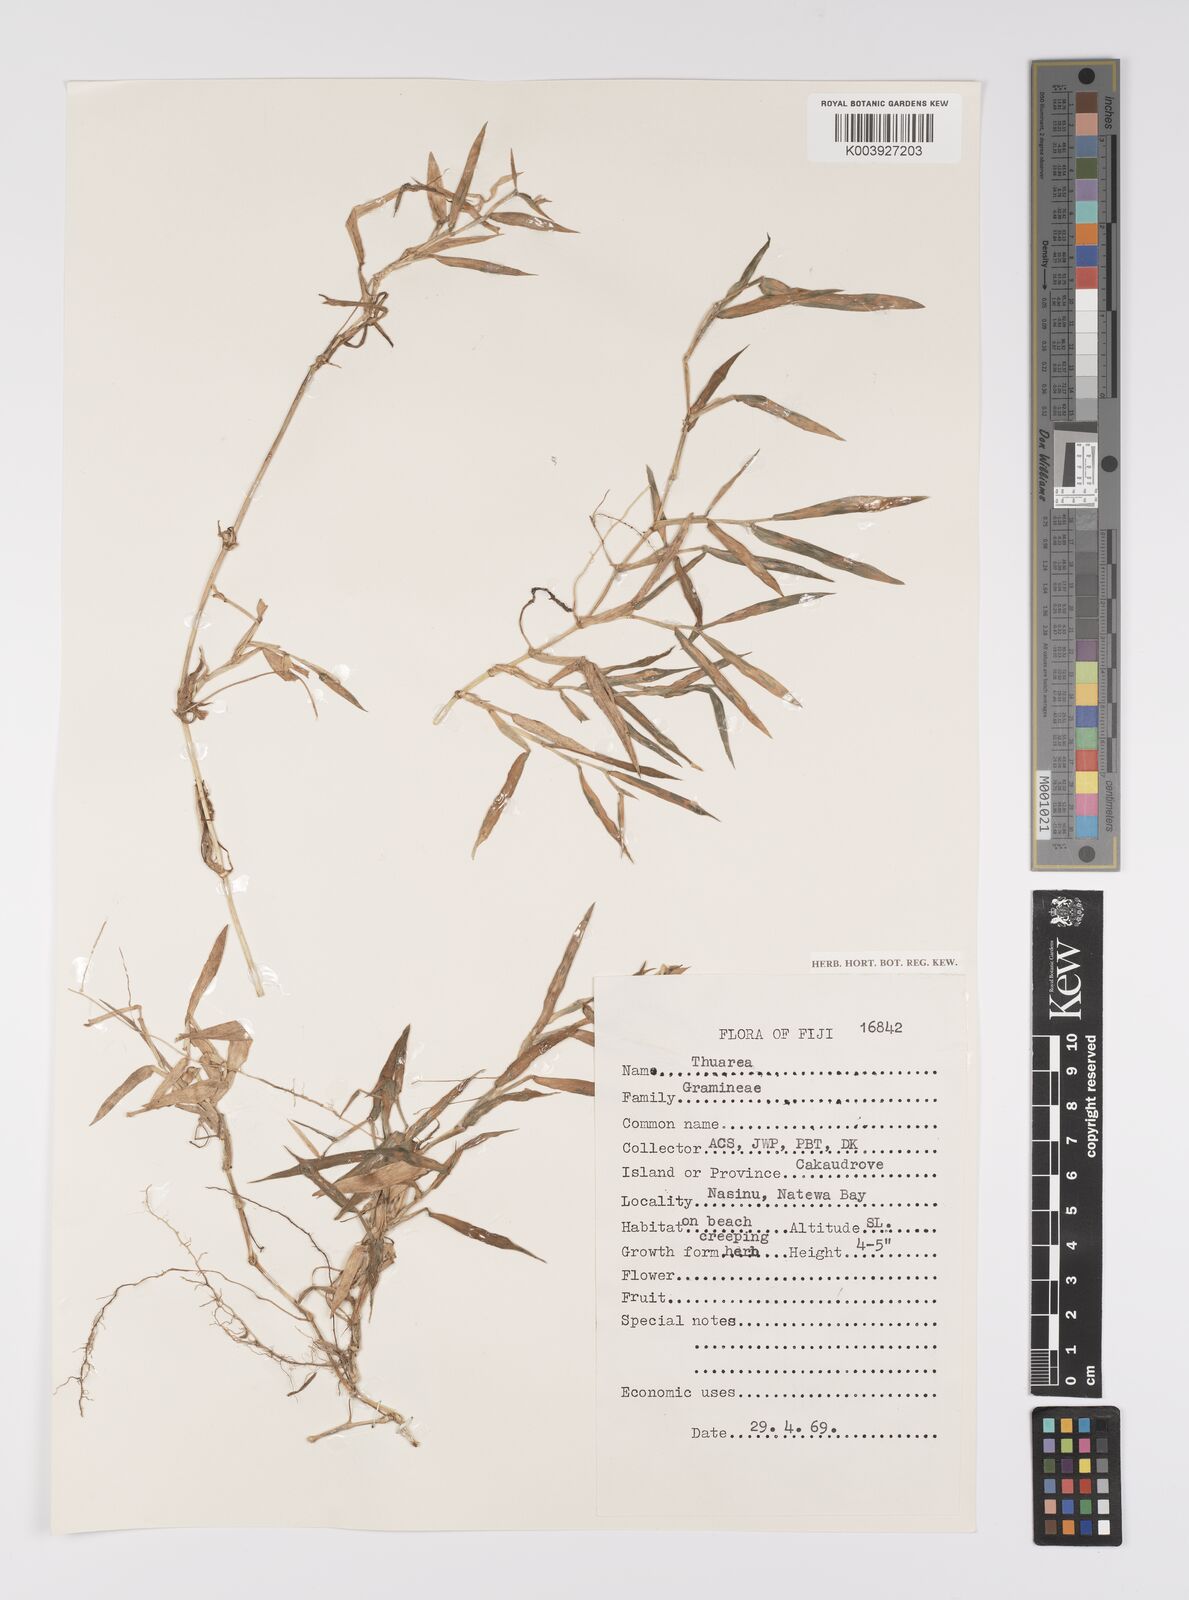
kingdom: Plantae
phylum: Tracheophyta
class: Liliopsida
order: Poales
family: Poaceae
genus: Thuarea
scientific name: Thuarea involuta
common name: Tropical beach grass
